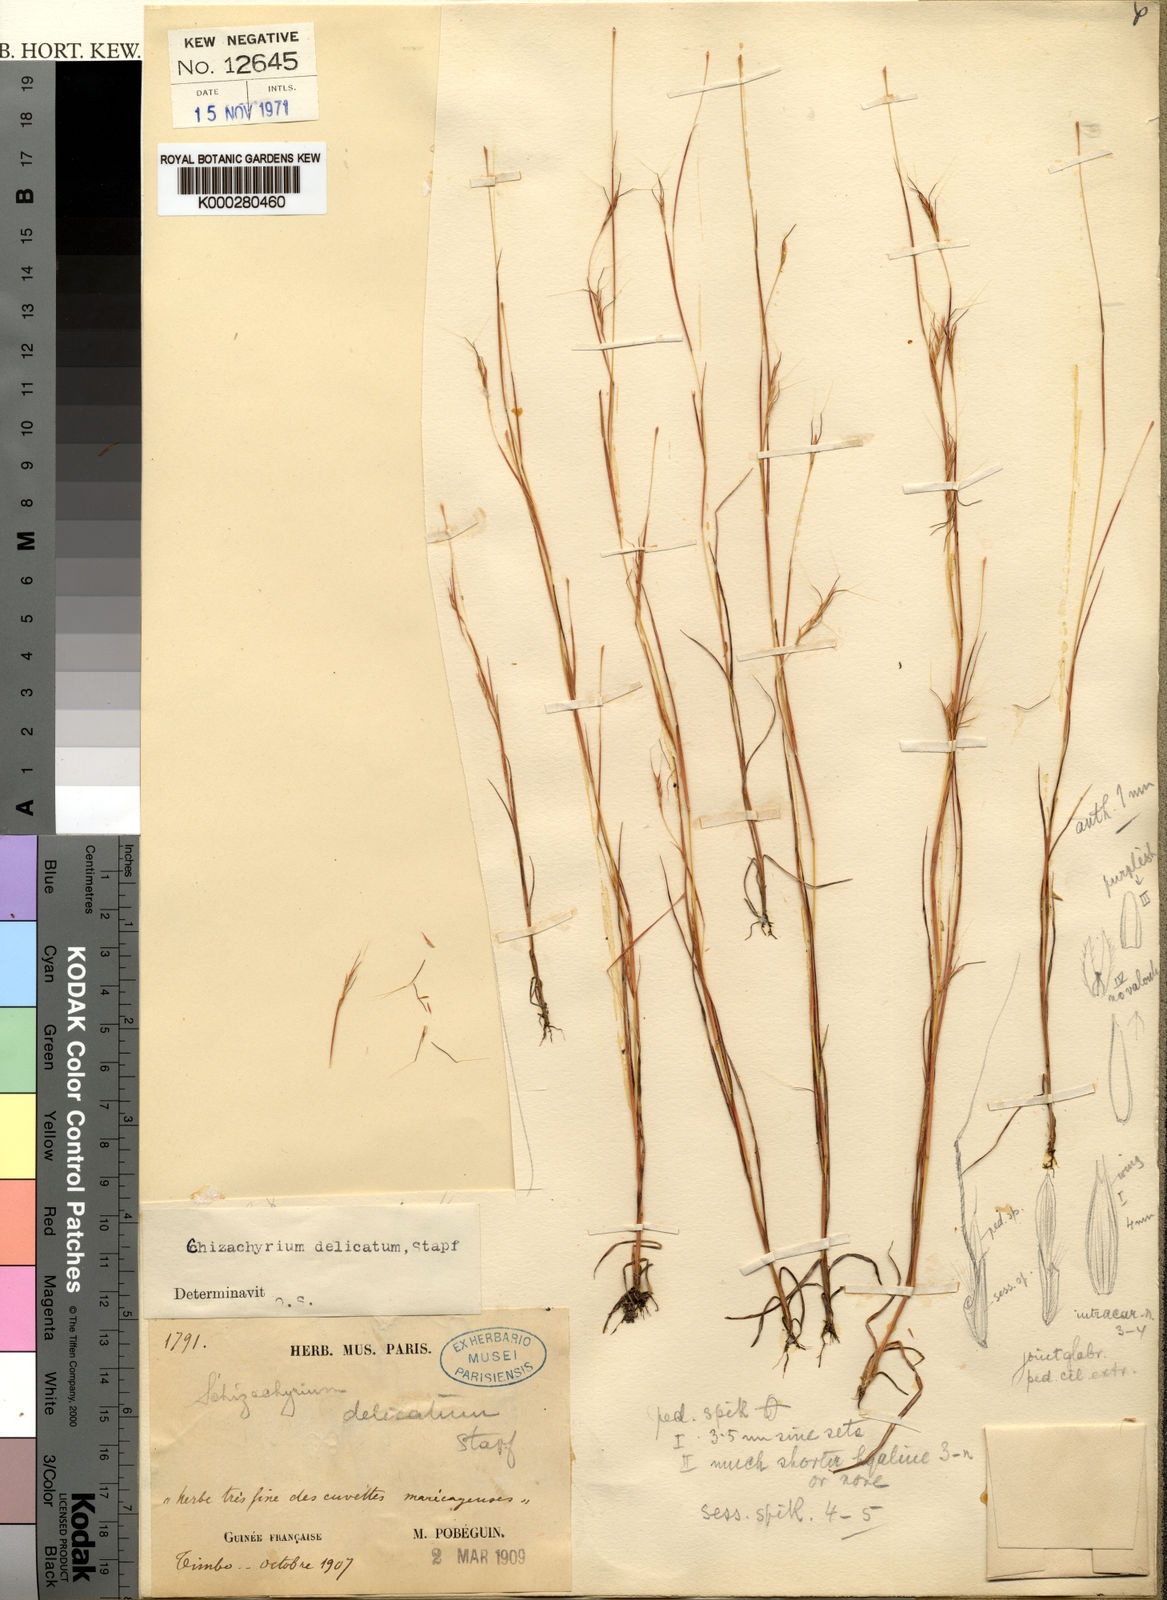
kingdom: Plantae
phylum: Tracheophyta
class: Liliopsida
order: Poales
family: Poaceae
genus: Schizachyrium
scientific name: Schizachyrium delicatum
